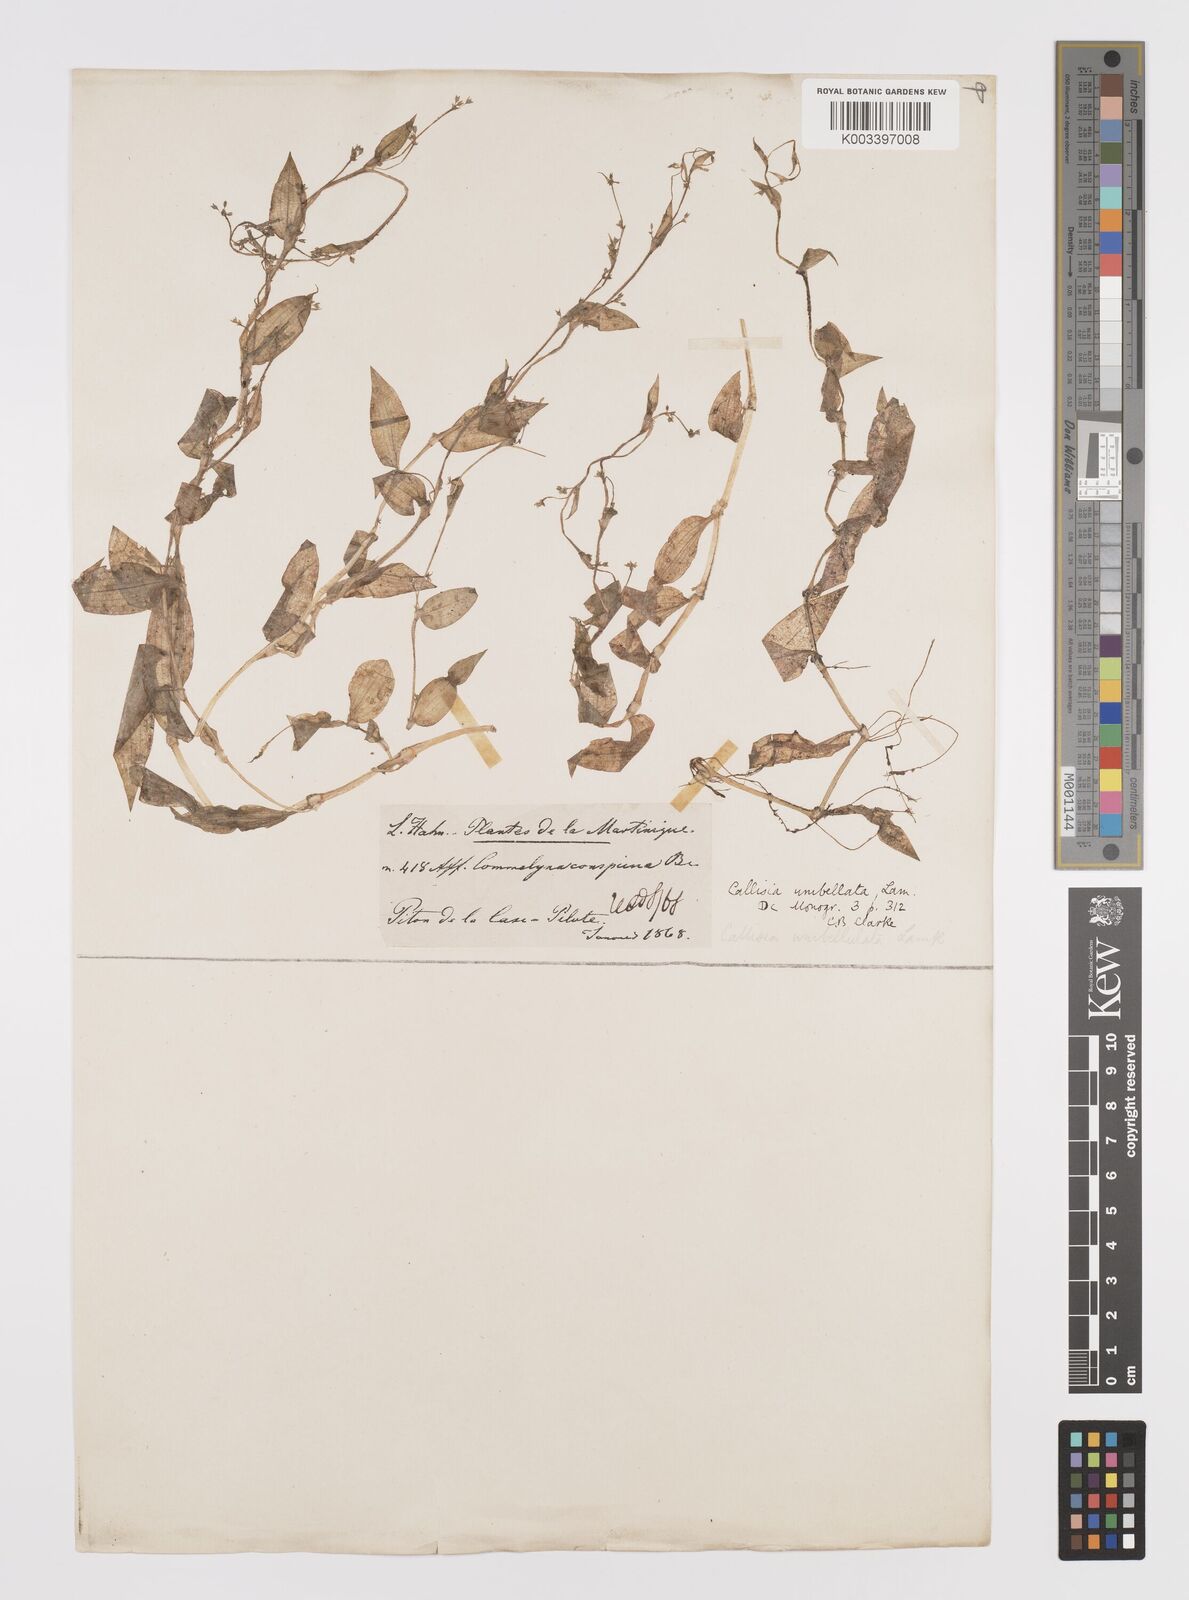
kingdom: Plantae
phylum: Tracheophyta
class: Liliopsida
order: Commelinales
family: Commelinaceae
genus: Callisia
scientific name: Callisia monandra
